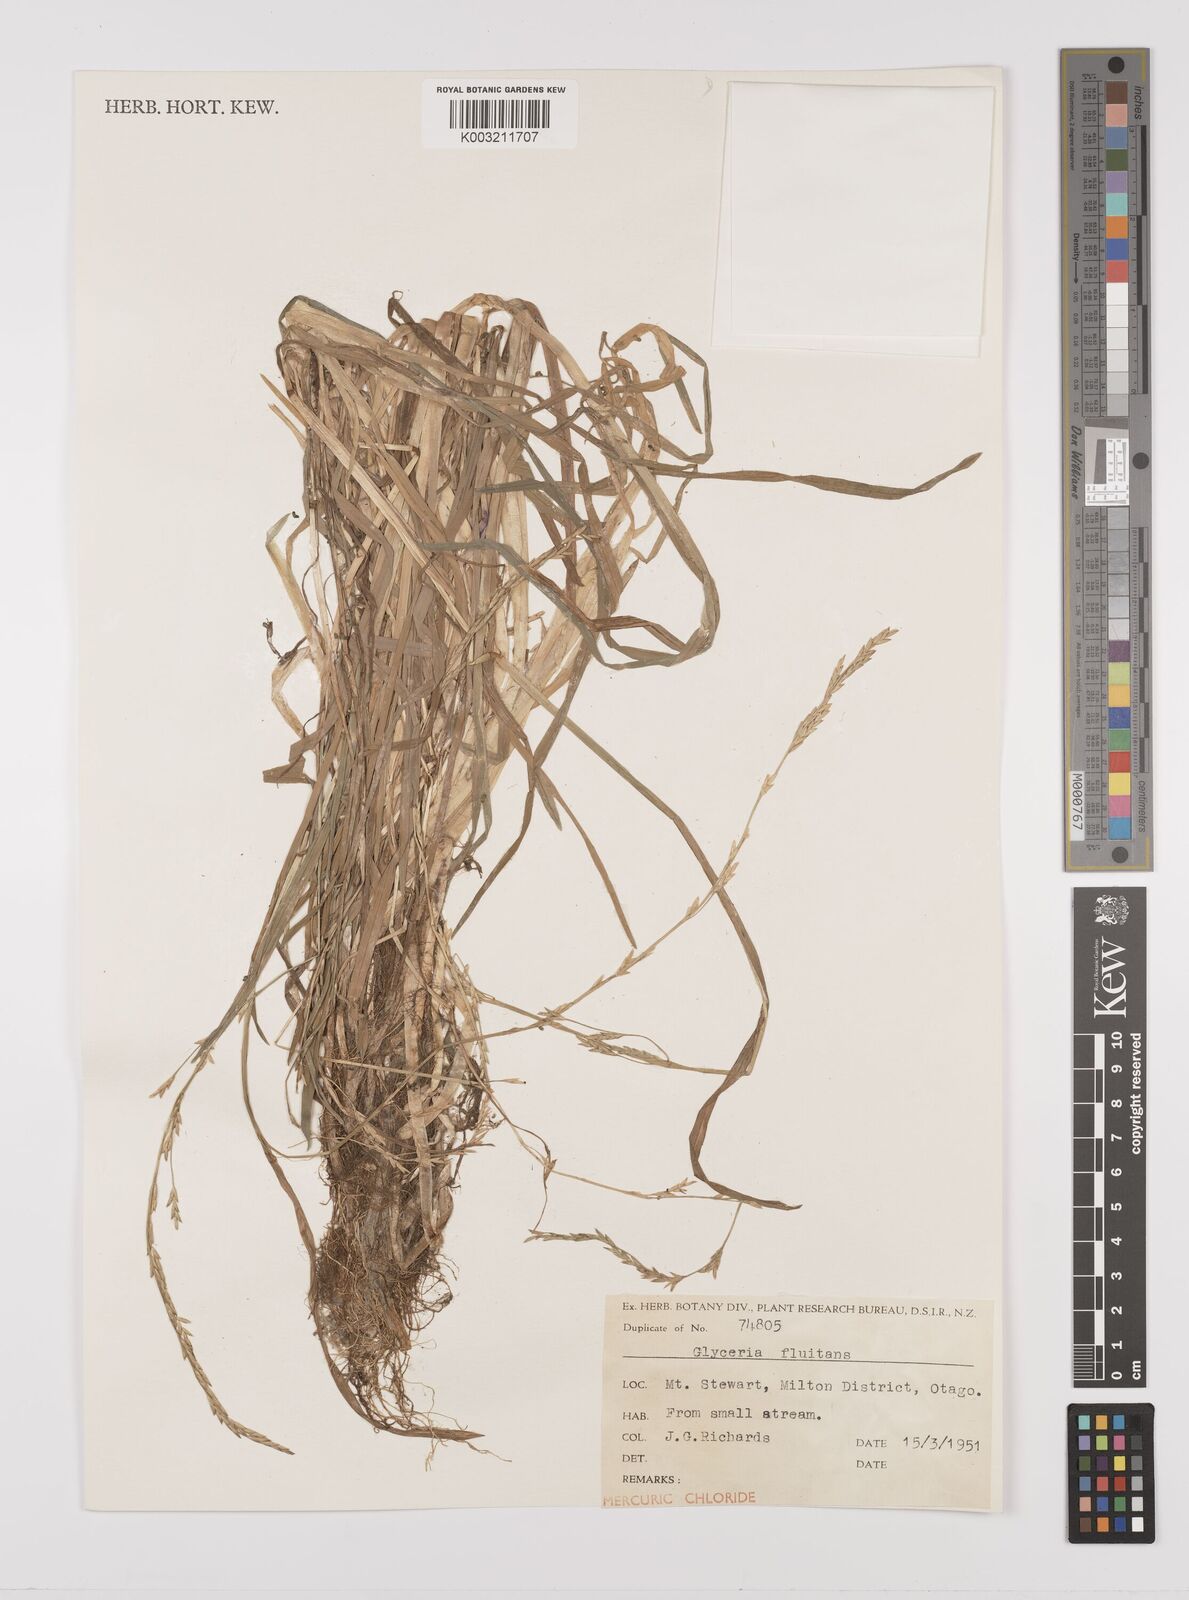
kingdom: Plantae
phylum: Tracheophyta
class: Liliopsida
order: Poales
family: Poaceae
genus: Glyceria
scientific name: Glyceria fluitans
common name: Floating sweet-grass
